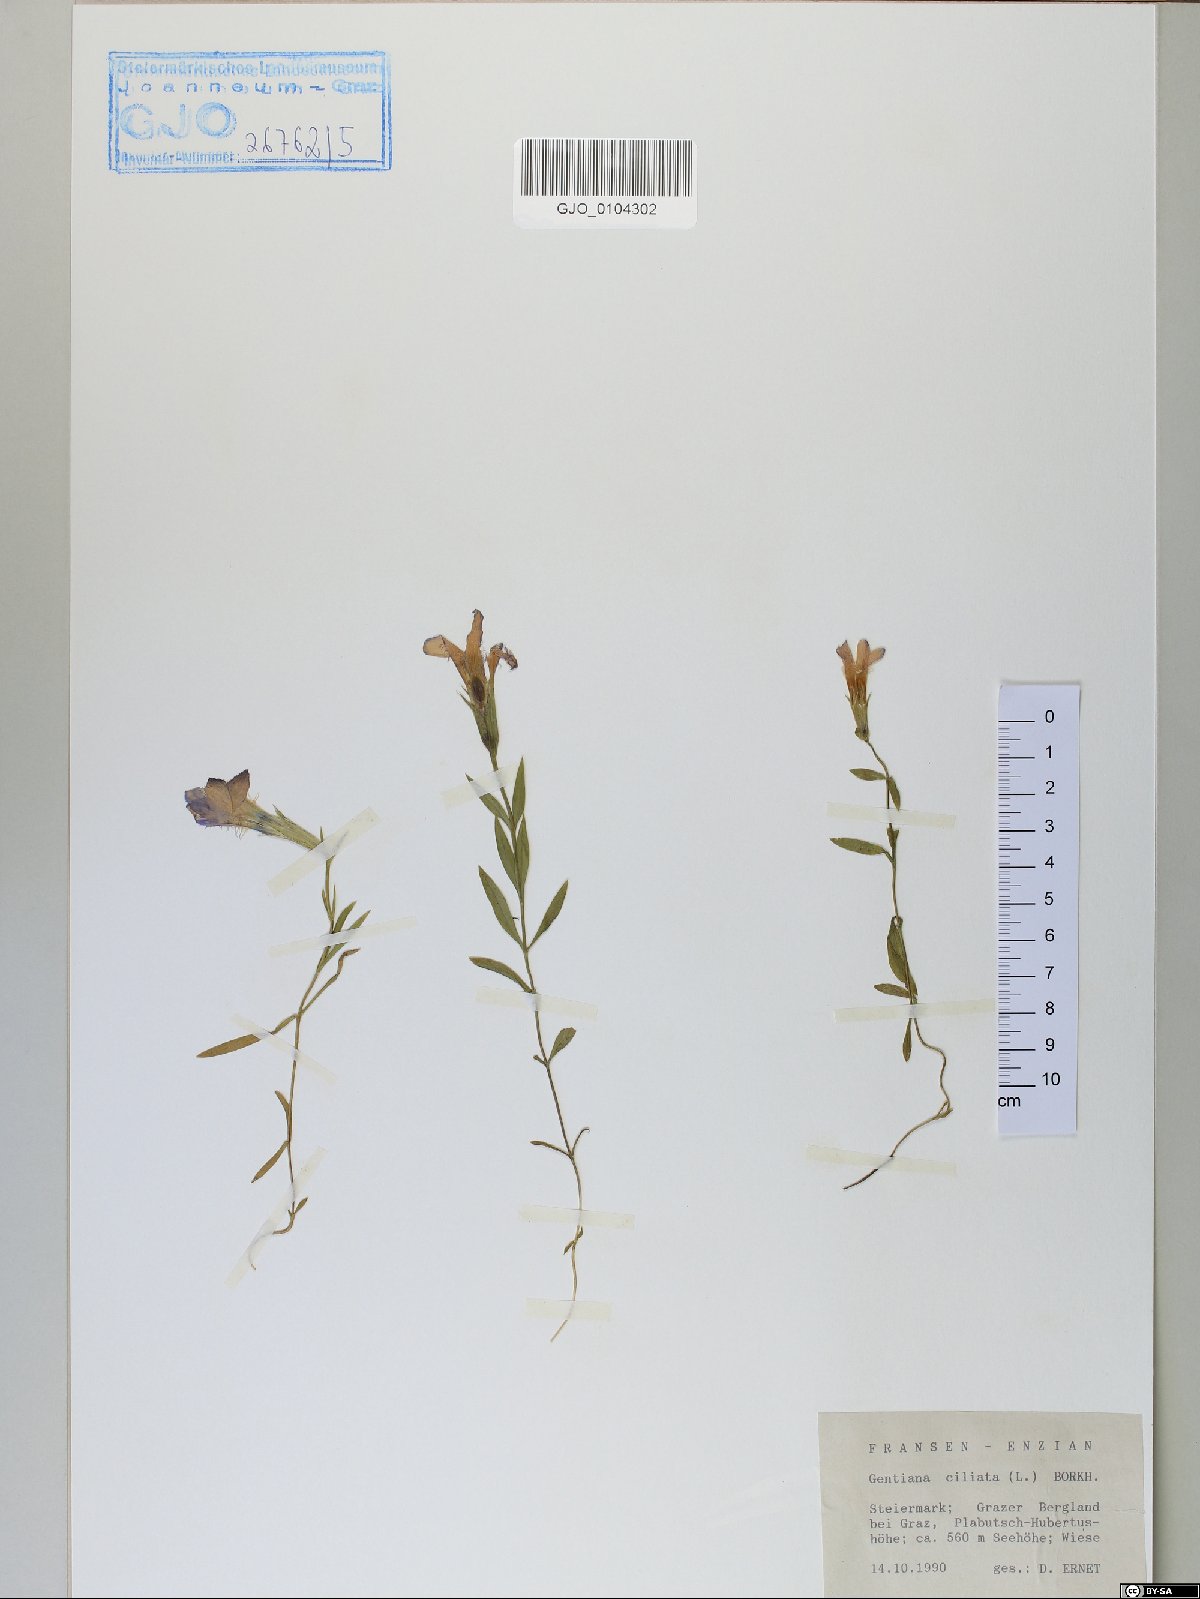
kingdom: Plantae
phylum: Tracheophyta
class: Magnoliopsida
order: Gentianales
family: Gentianaceae
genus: Gentianopsis
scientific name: Gentianopsis ciliata
